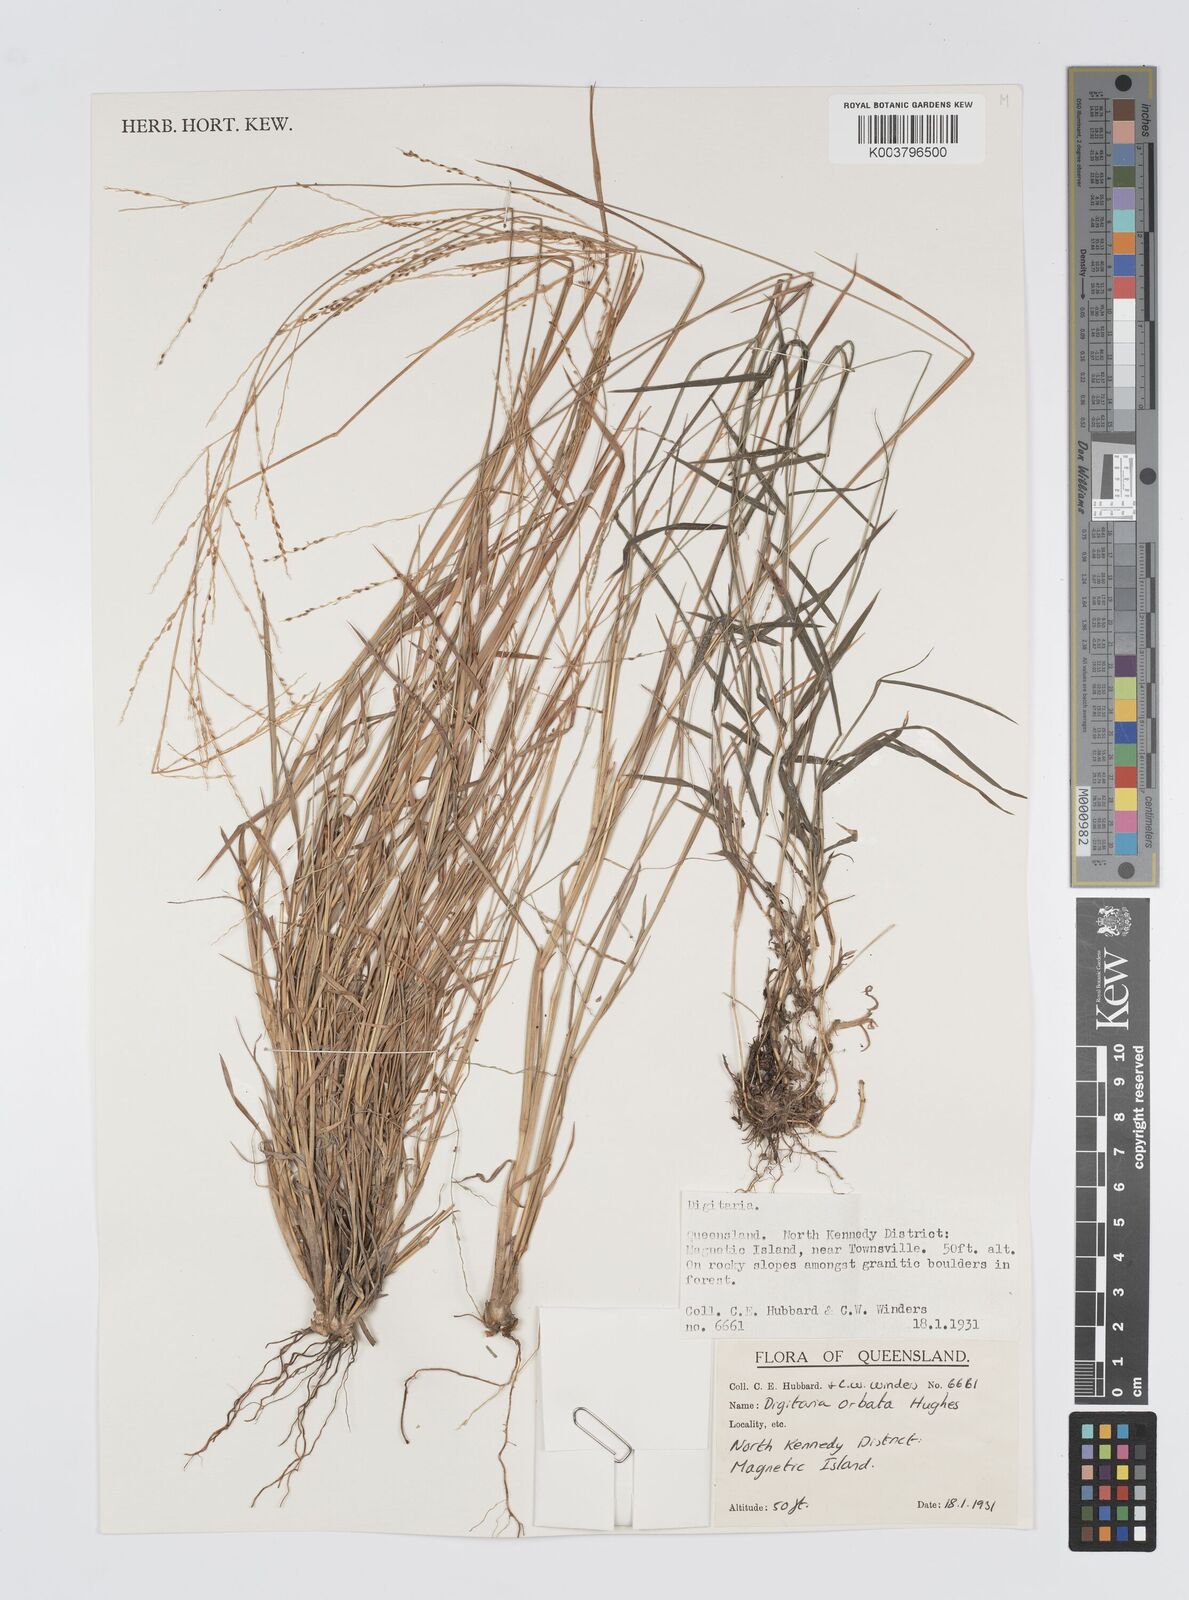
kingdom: Plantae
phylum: Tracheophyta
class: Liliopsida
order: Poales
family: Poaceae
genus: Digitaria
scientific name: Digitaria orbata
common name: Crabgrass
